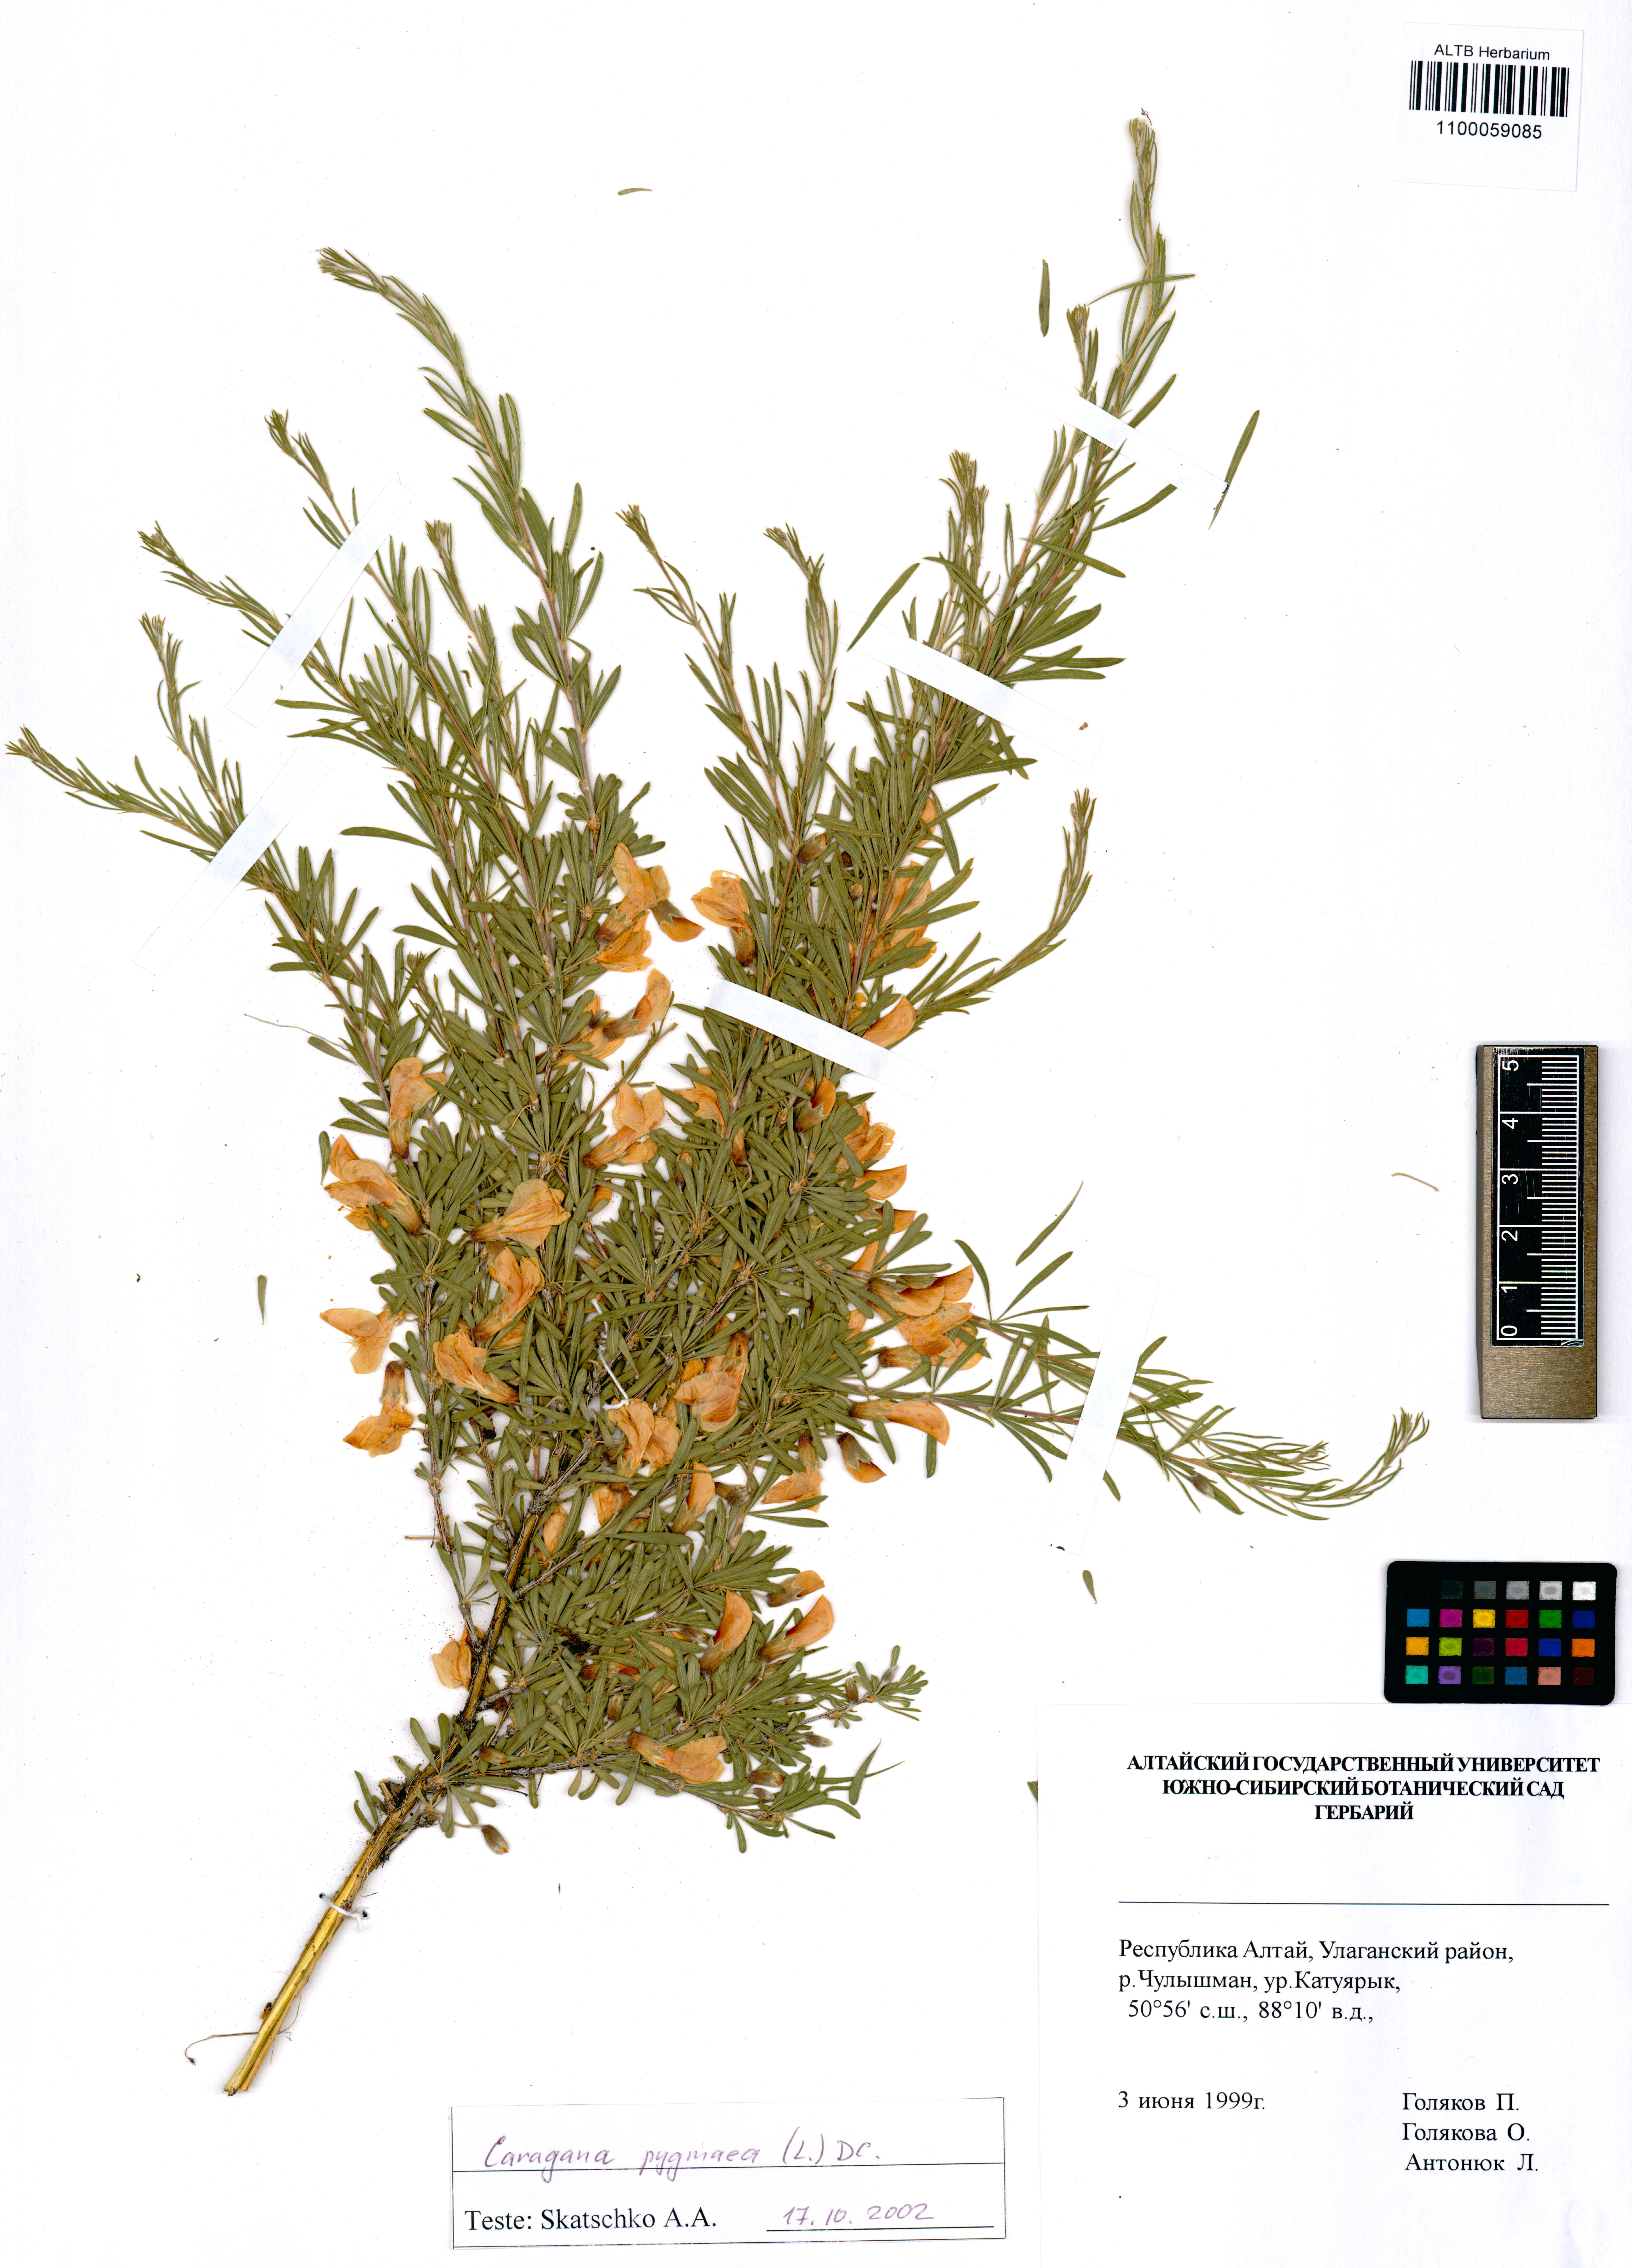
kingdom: Plantae
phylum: Tracheophyta
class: Magnoliopsida
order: Fabales
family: Fabaceae
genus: Caragana
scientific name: Caragana pygmaea
